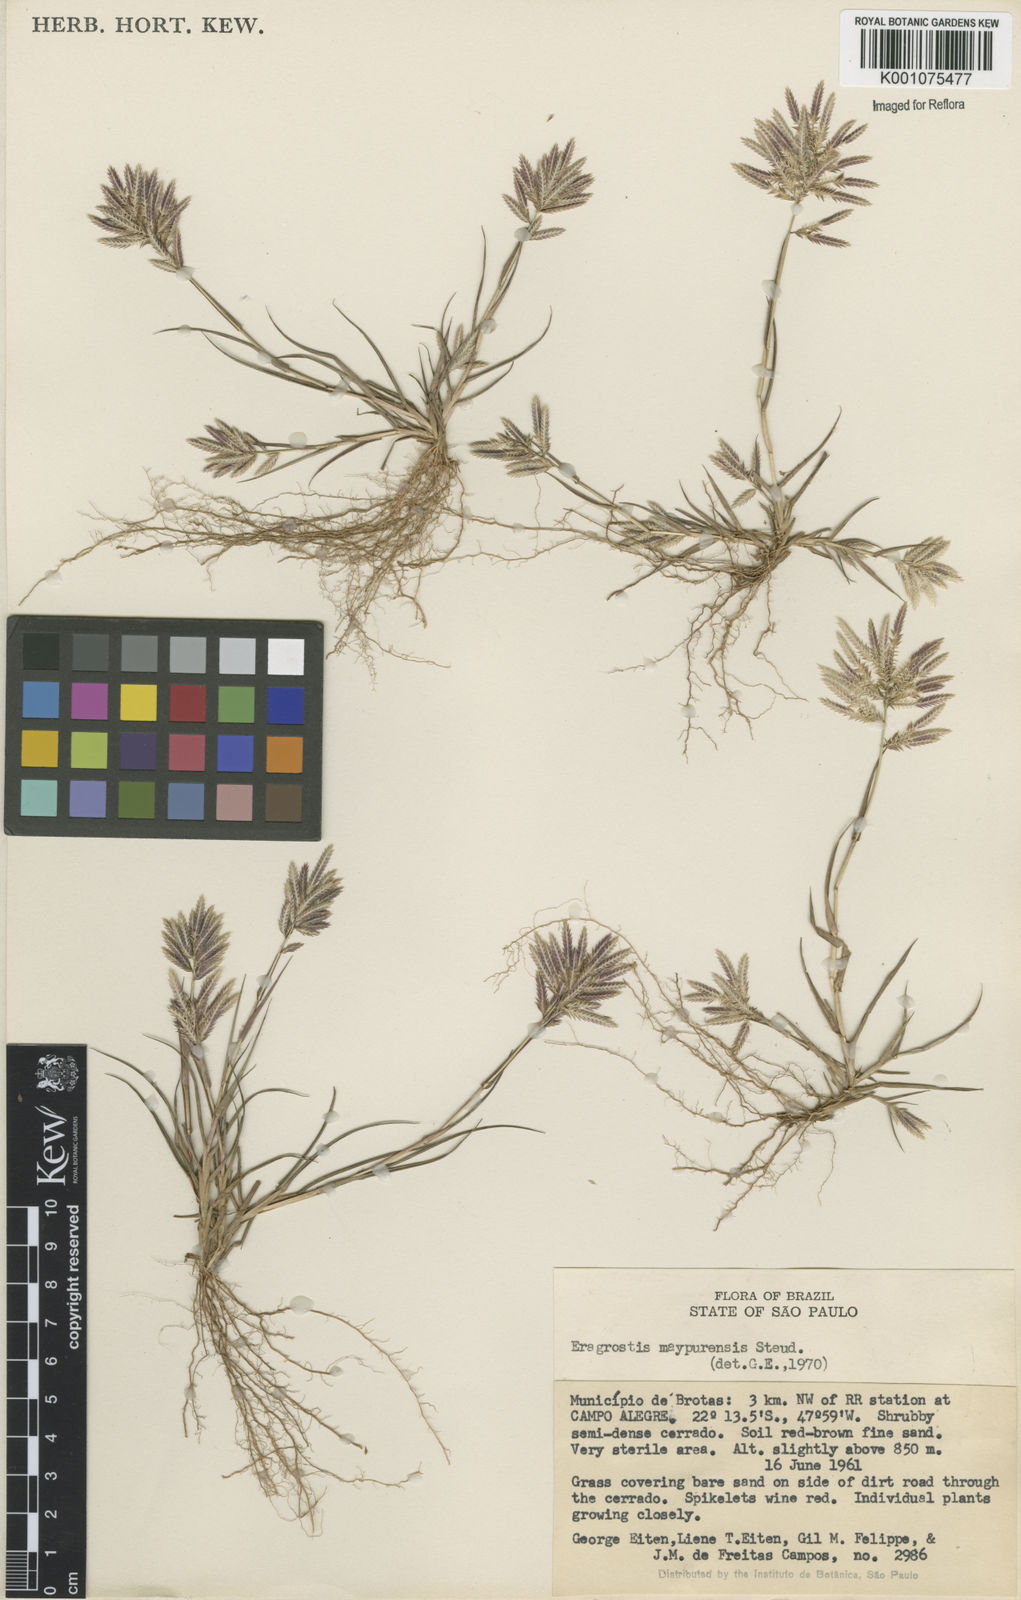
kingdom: Plantae
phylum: Tracheophyta
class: Liliopsida
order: Poales
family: Poaceae
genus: Eragrostis
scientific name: Eragrostis maypurensis
